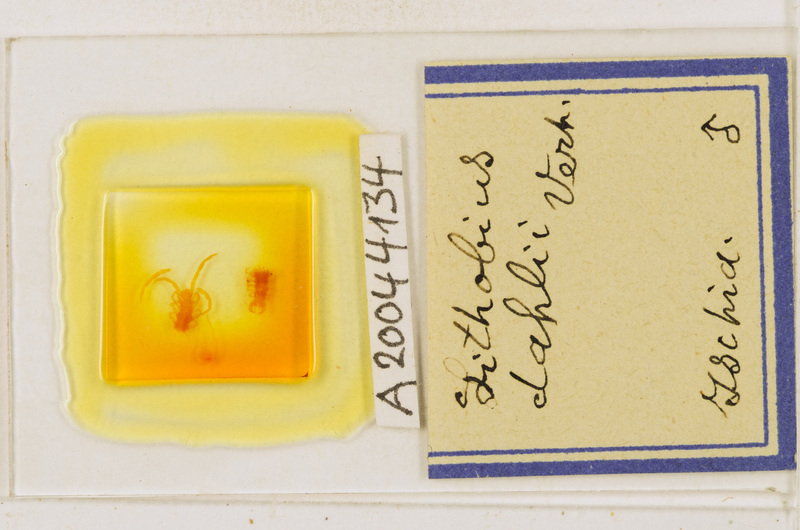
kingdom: Animalia
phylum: Arthropoda
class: Chilopoda
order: Lithobiomorpha
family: Lithobiidae
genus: Lithobius
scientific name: Lithobius dahlii
